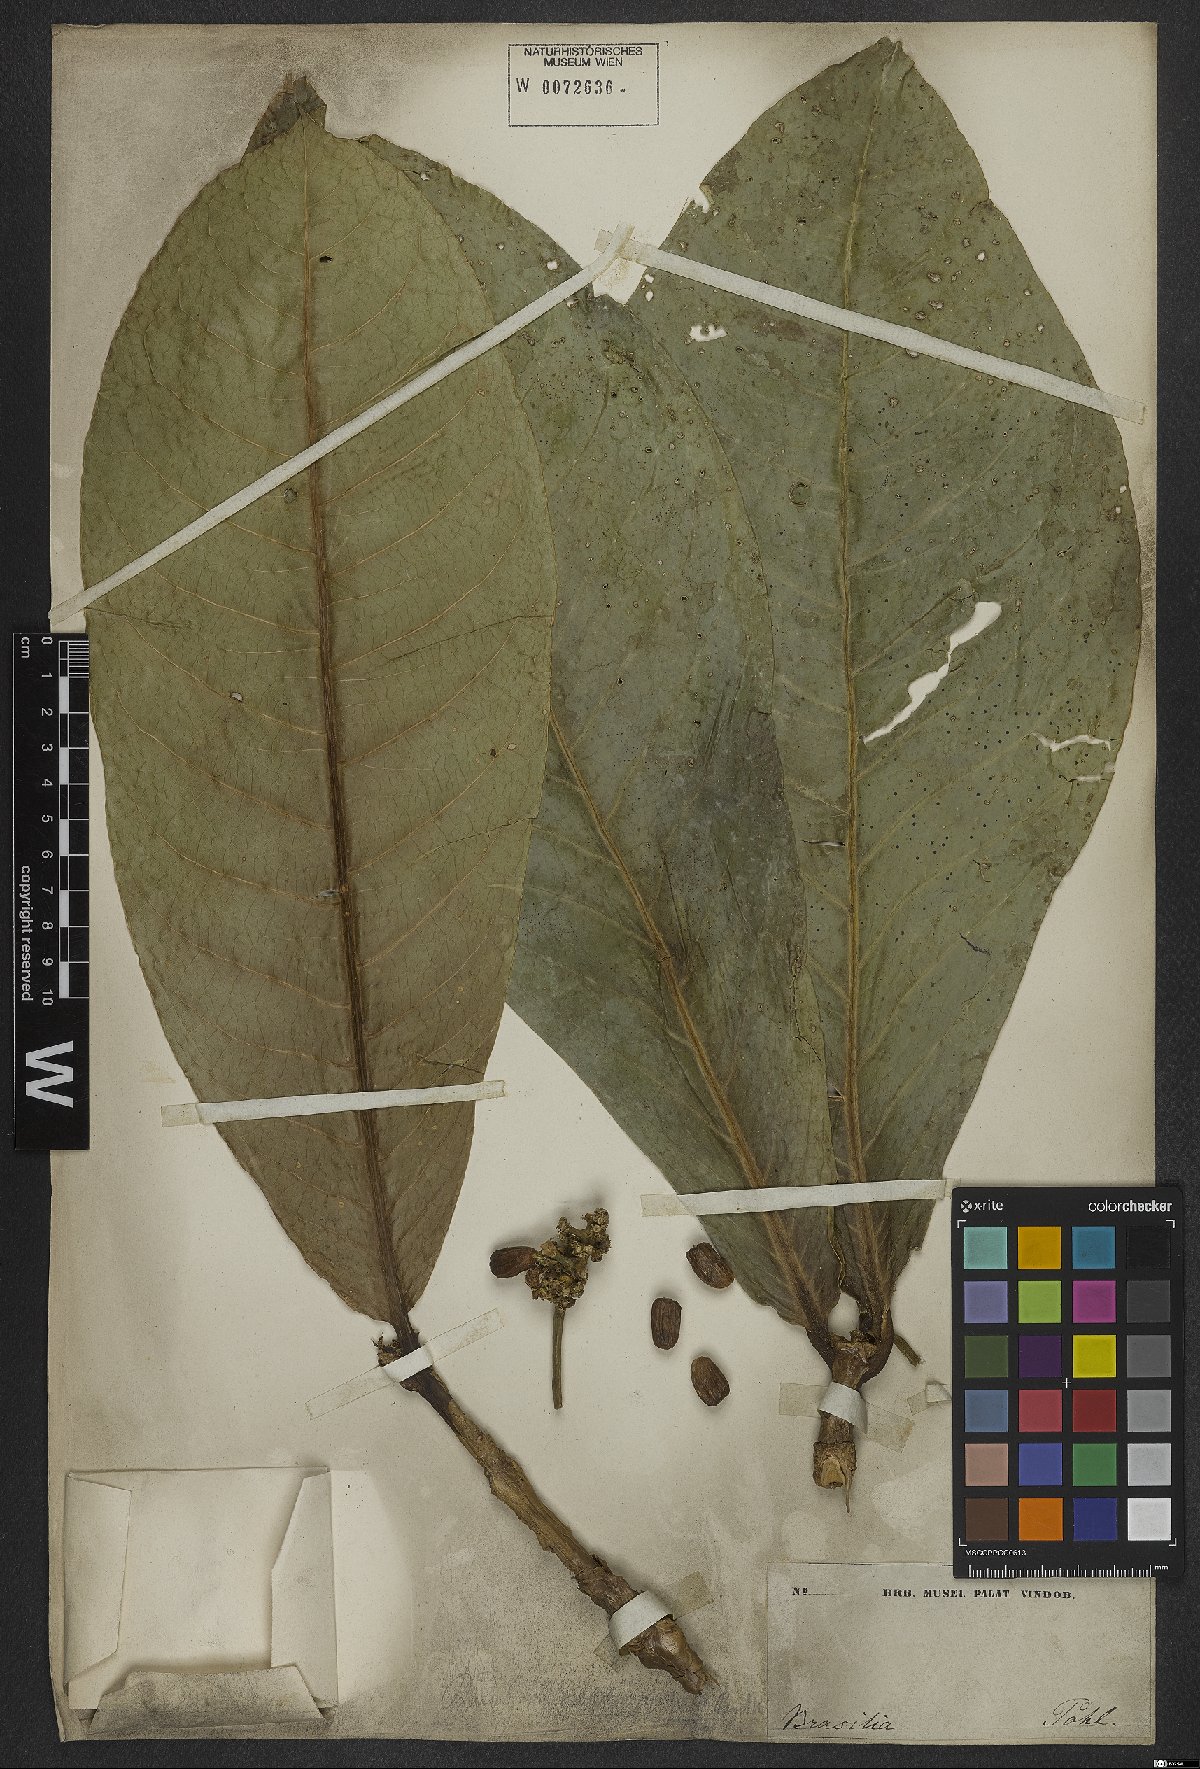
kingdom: Plantae
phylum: Tracheophyta
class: Magnoliopsida
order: Gentianales
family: Rubiaceae
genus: Rudgea
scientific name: Rudgea macrophylla
